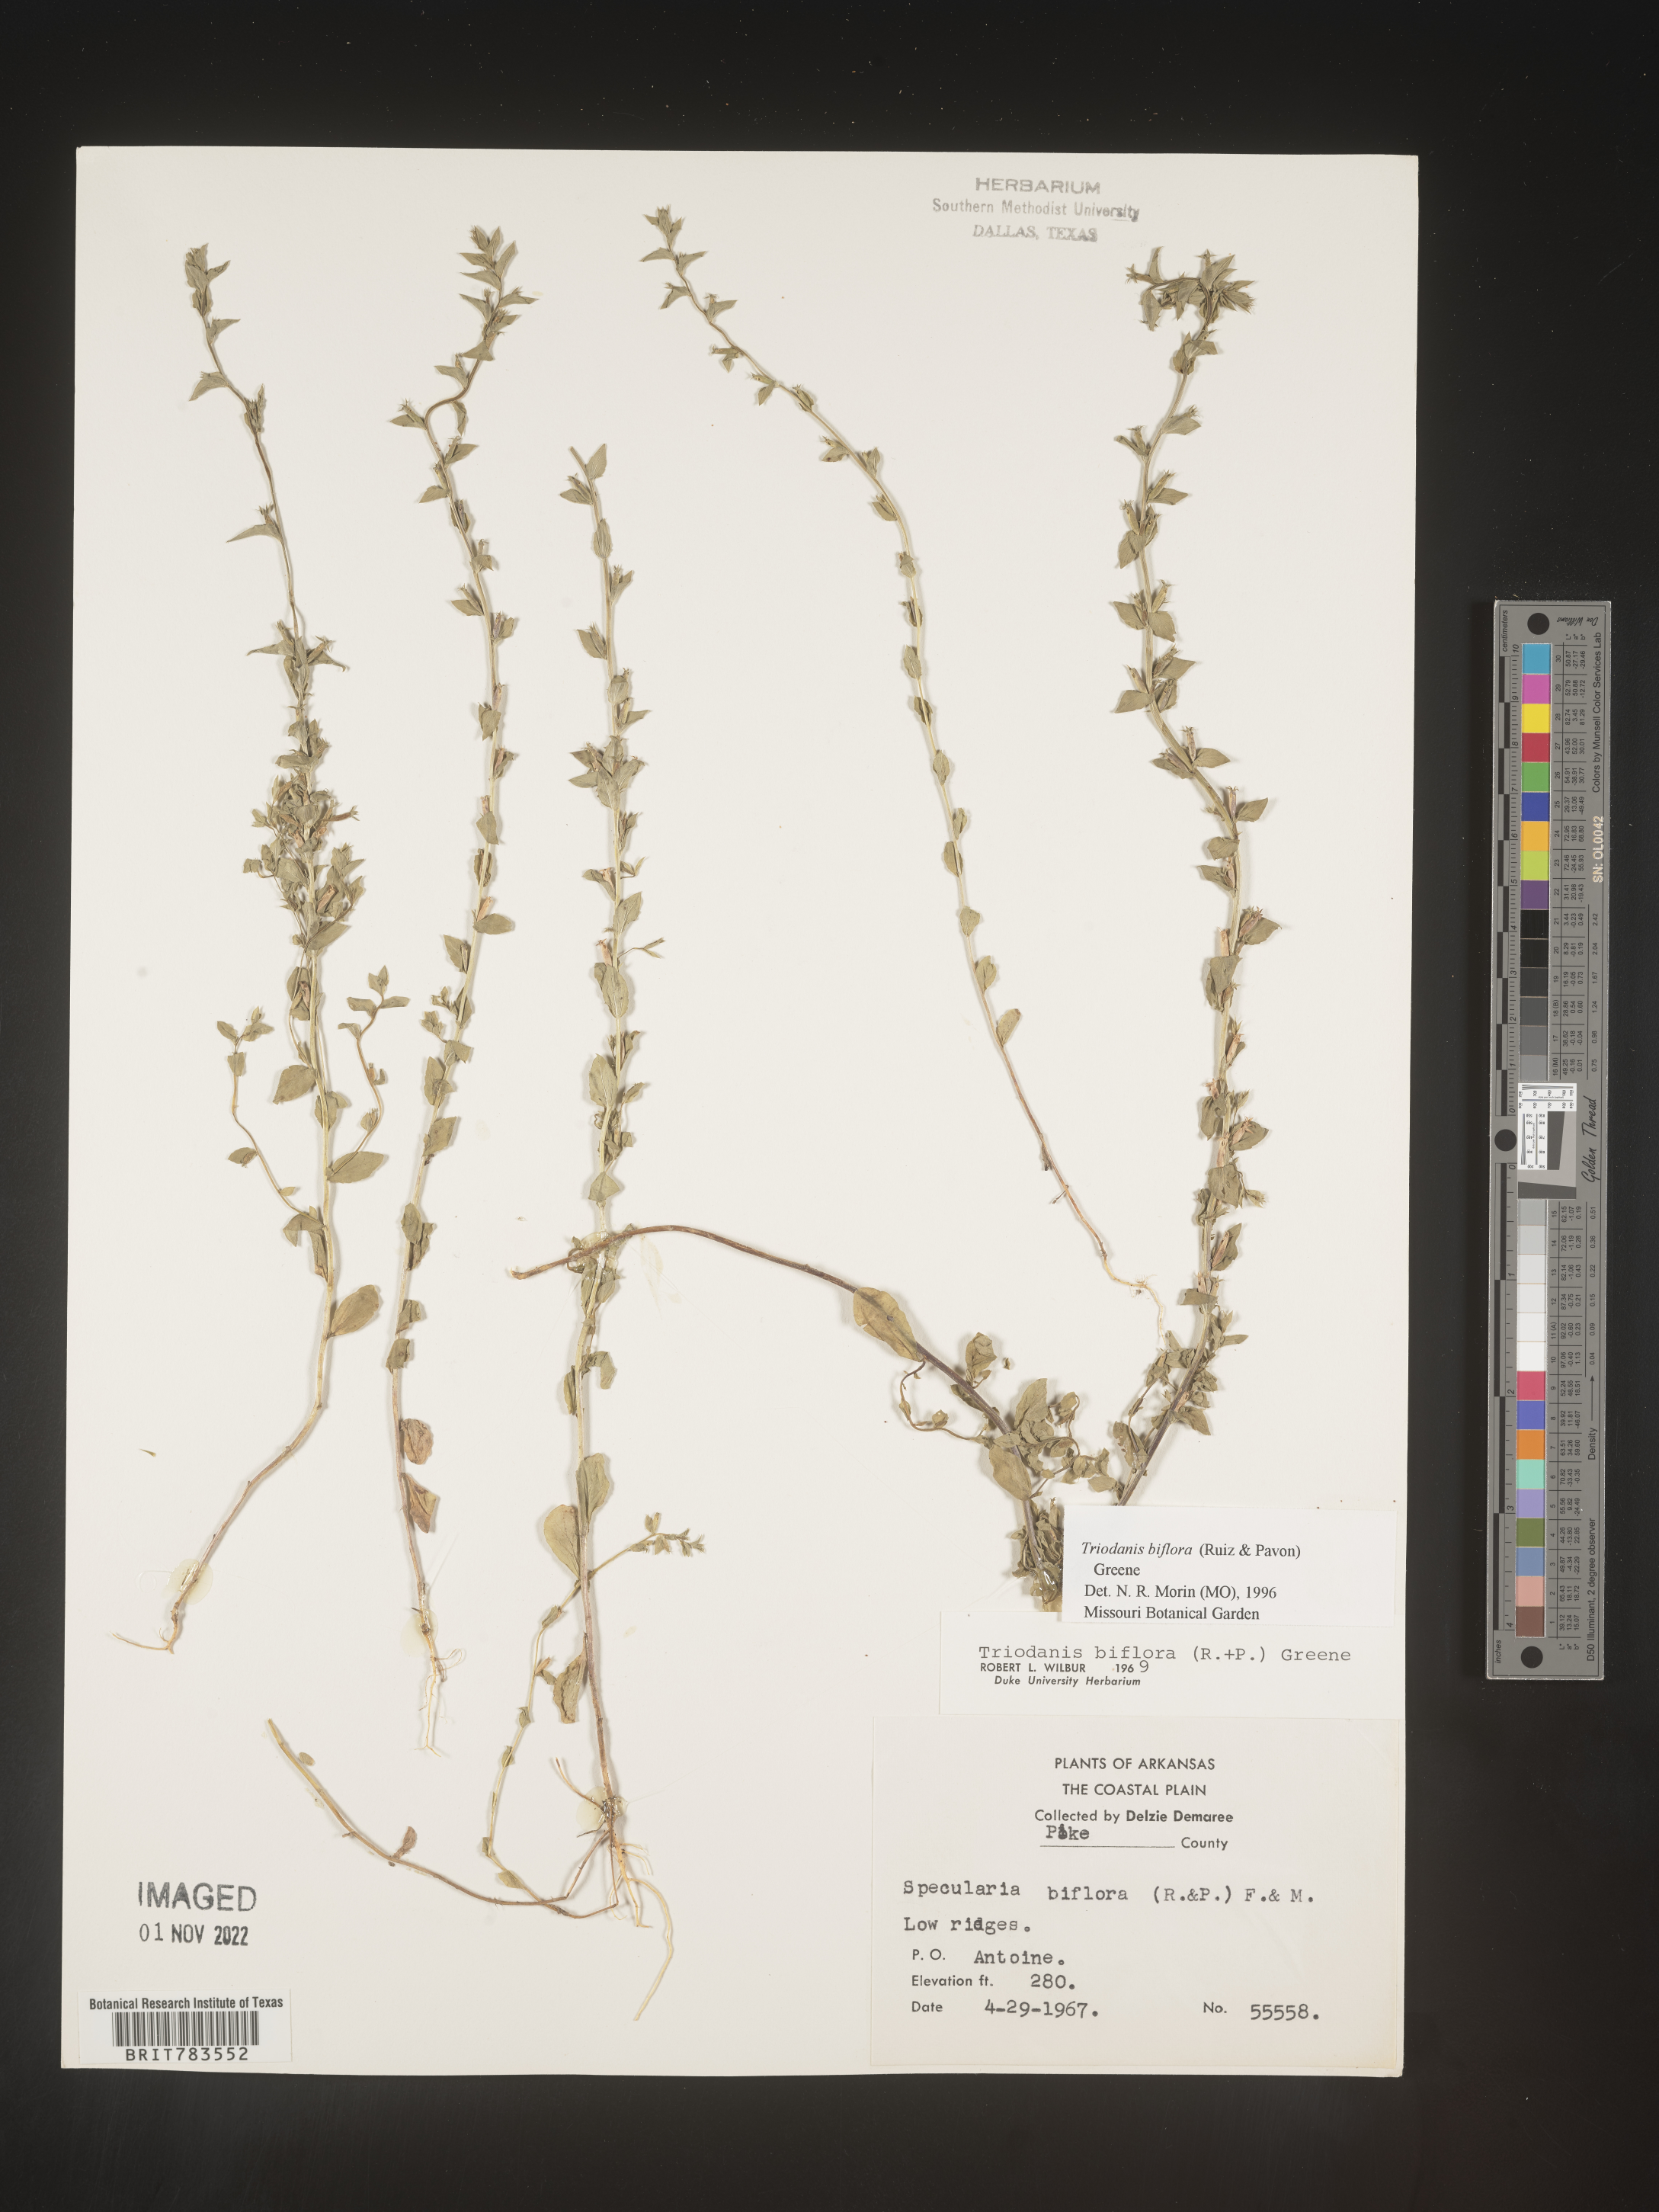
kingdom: Plantae
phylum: Tracheophyta
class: Magnoliopsida
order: Asterales
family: Campanulaceae
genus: Triodanis
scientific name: Triodanis perfoliata
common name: Clasping venus' looking-glass
